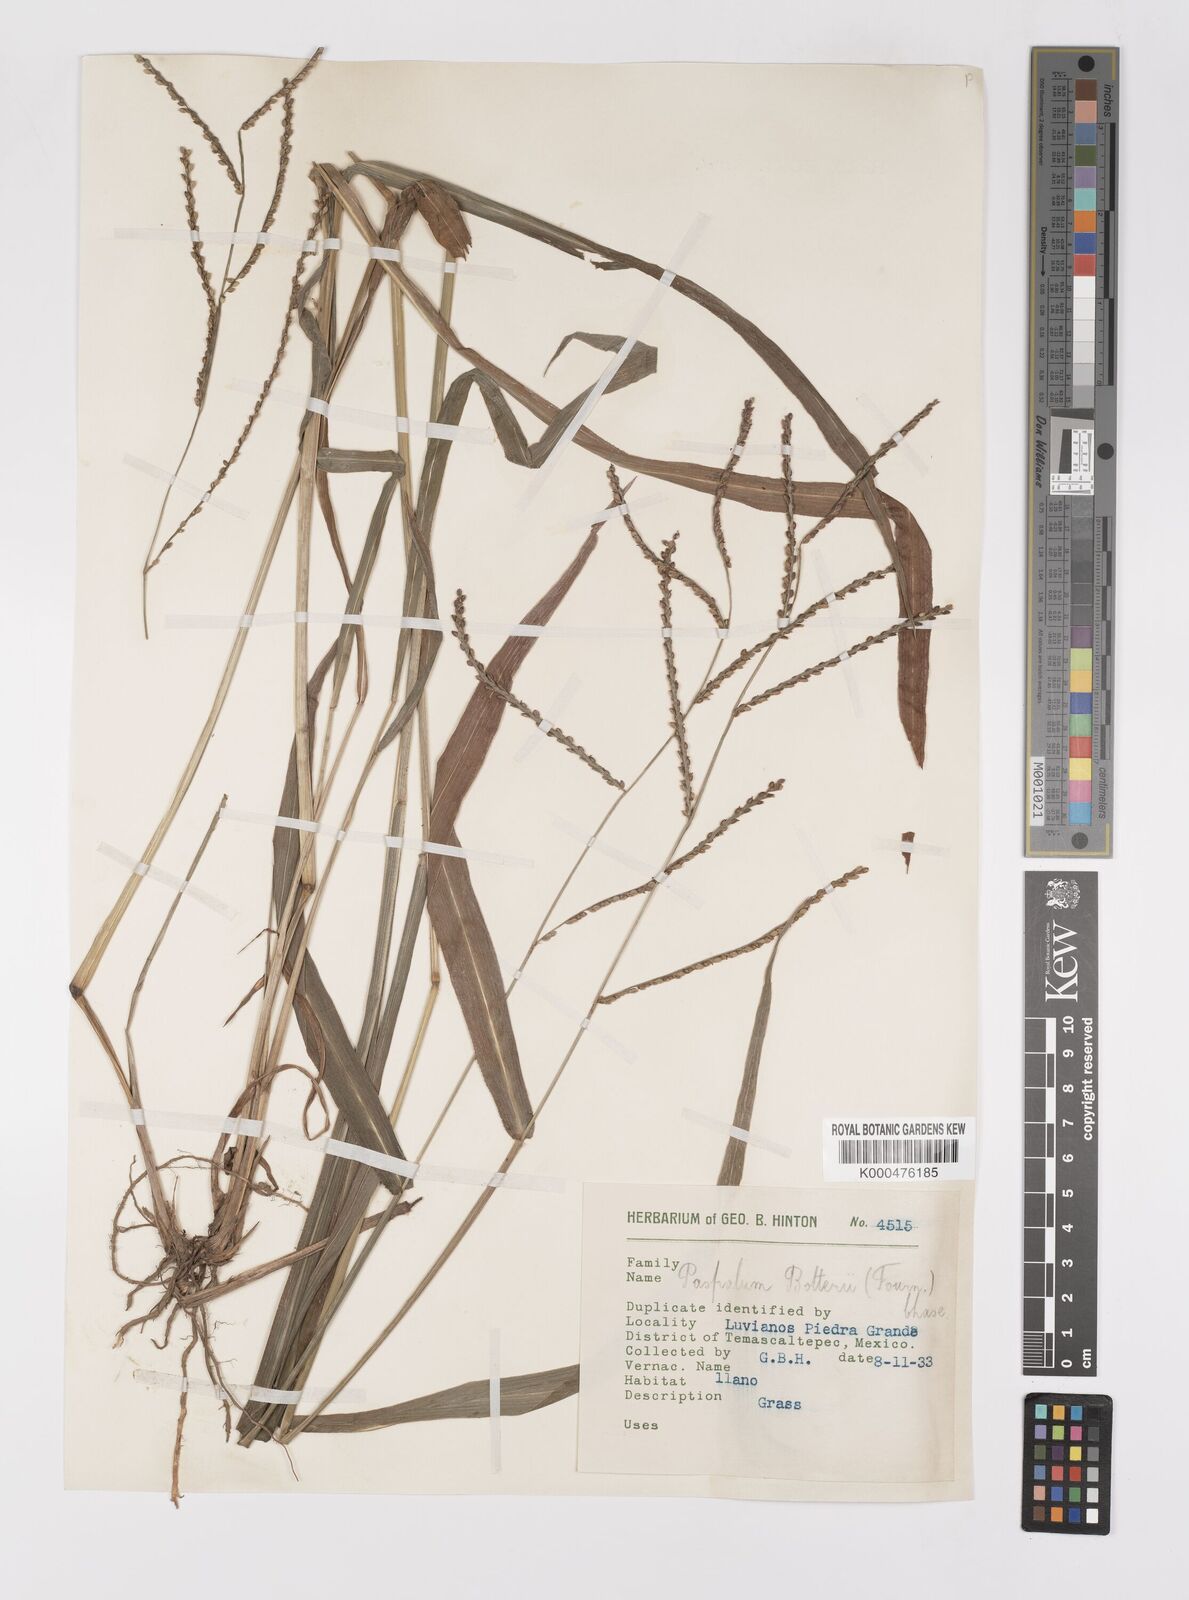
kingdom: Plantae
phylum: Tracheophyta
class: Liliopsida
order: Poales
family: Poaceae
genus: Paspalum
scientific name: Paspalum botterii
